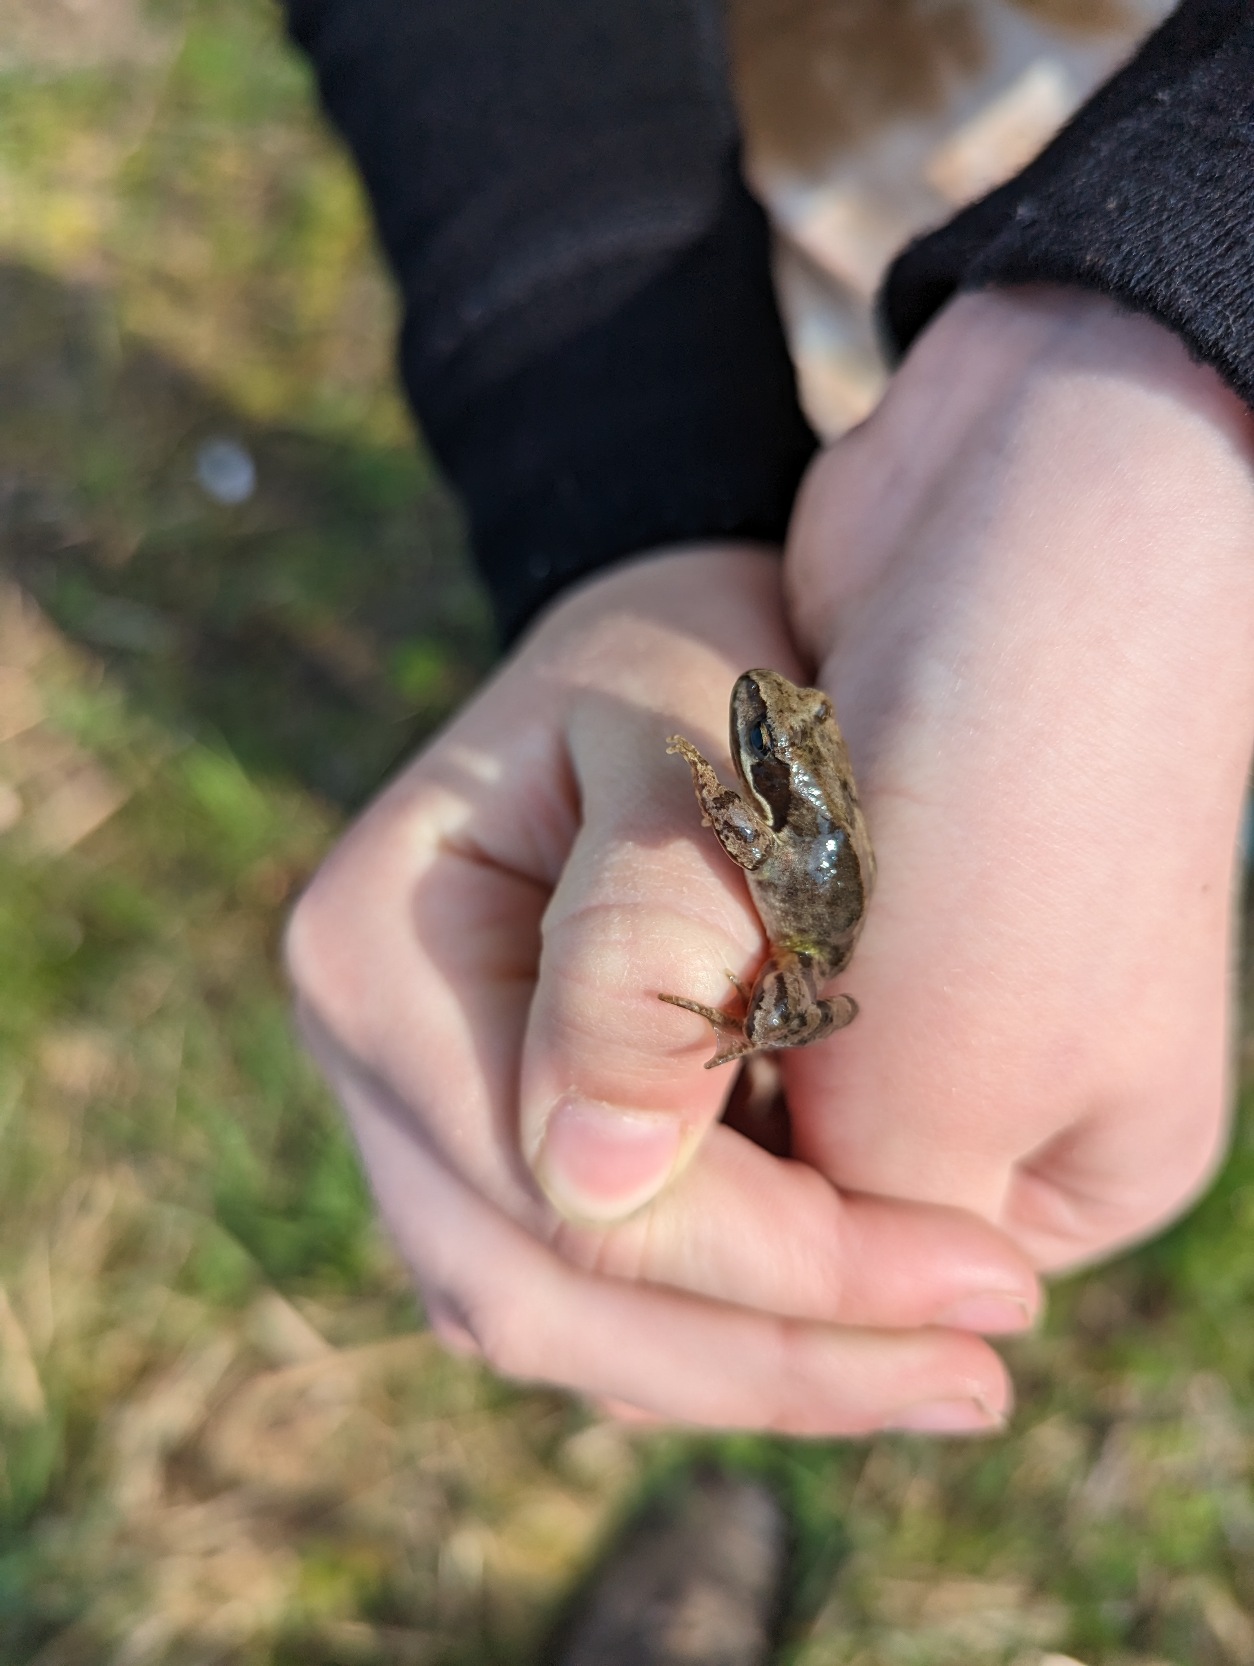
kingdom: Animalia
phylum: Chordata
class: Amphibia
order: Anura
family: Ranidae
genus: Rana
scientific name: Rana temporaria
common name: Butsnudet frø
